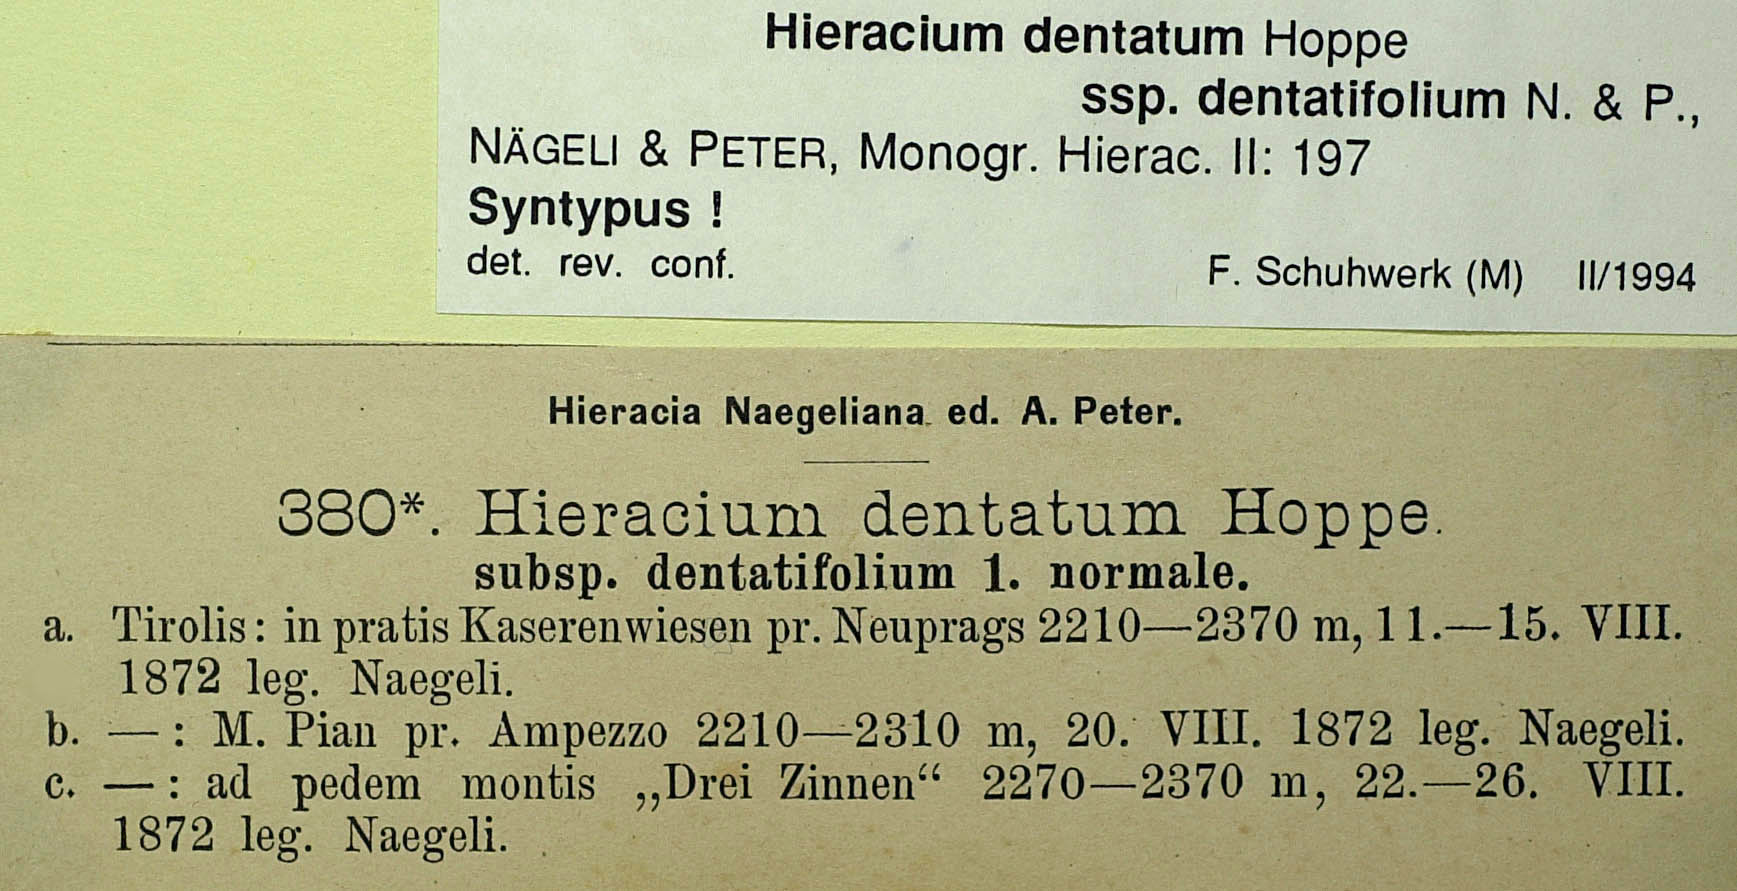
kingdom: Plantae
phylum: Tracheophyta
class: Magnoliopsida
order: Asterales
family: Asteraceae
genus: Hieracium
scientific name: Hieracium dentatum
